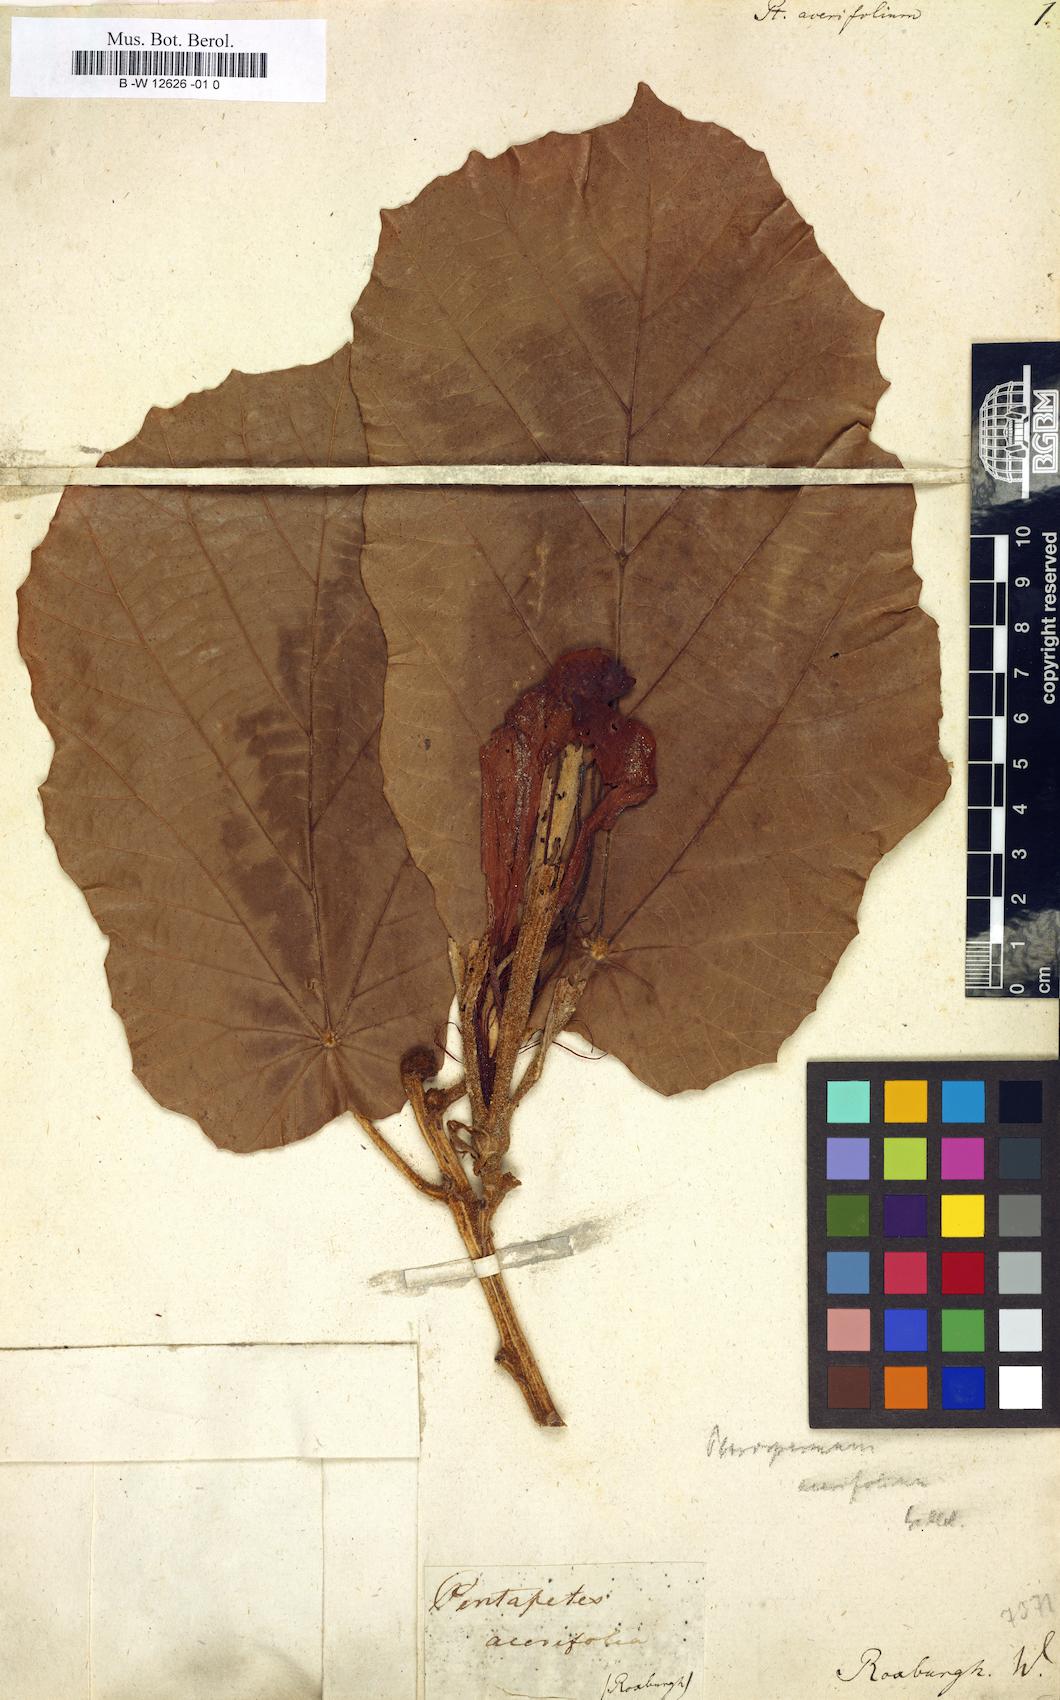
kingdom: Plantae
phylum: Tracheophyta
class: Magnoliopsida
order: Malvales
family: Malvaceae
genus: Pterospermum
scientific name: Pterospermum acerifolium
